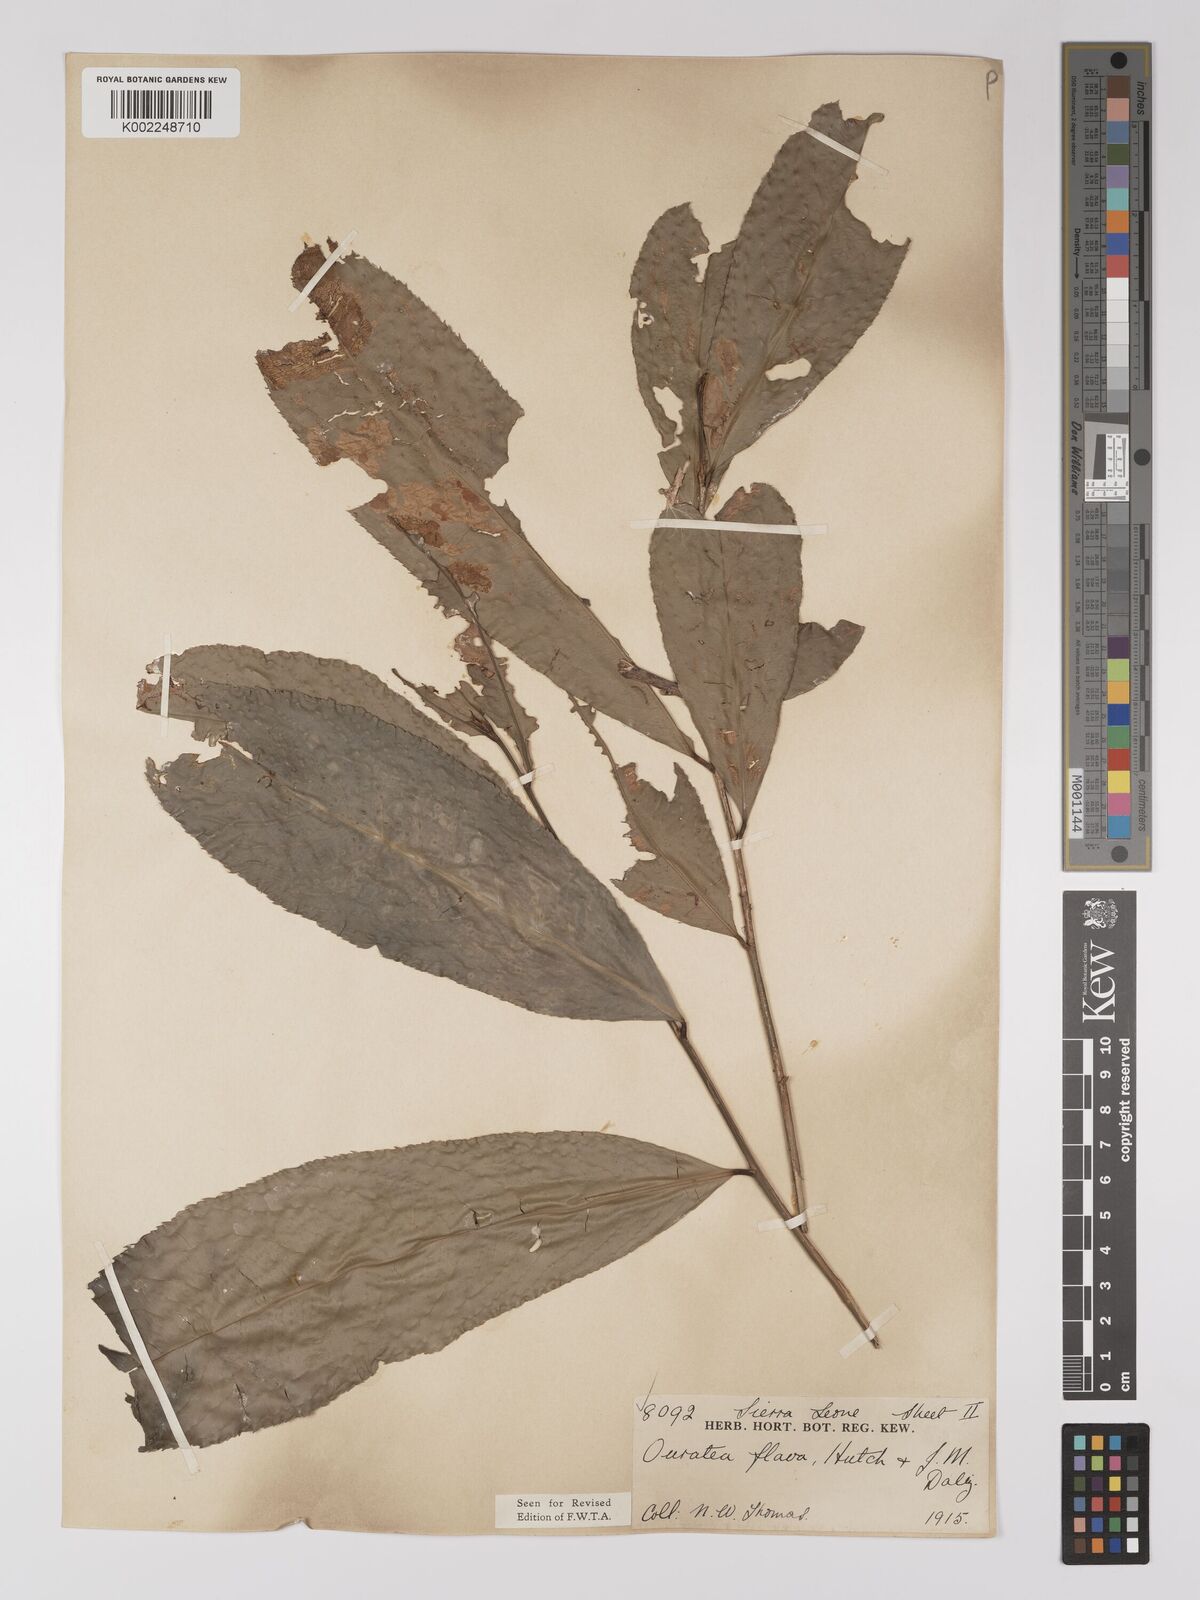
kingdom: Plantae
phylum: Tracheophyta
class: Magnoliopsida
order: Malpighiales
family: Ochnaceae
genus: Campylospermum
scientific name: Campylospermum flavum
